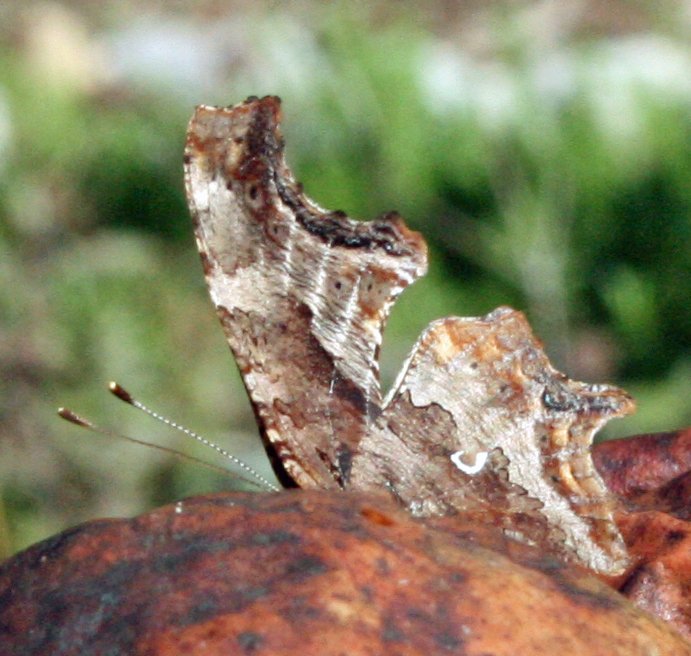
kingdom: Animalia
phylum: Arthropoda
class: Insecta
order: Lepidoptera
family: Nymphalidae
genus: Polygonia
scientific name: Polygonia comma
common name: Eastern Comma
